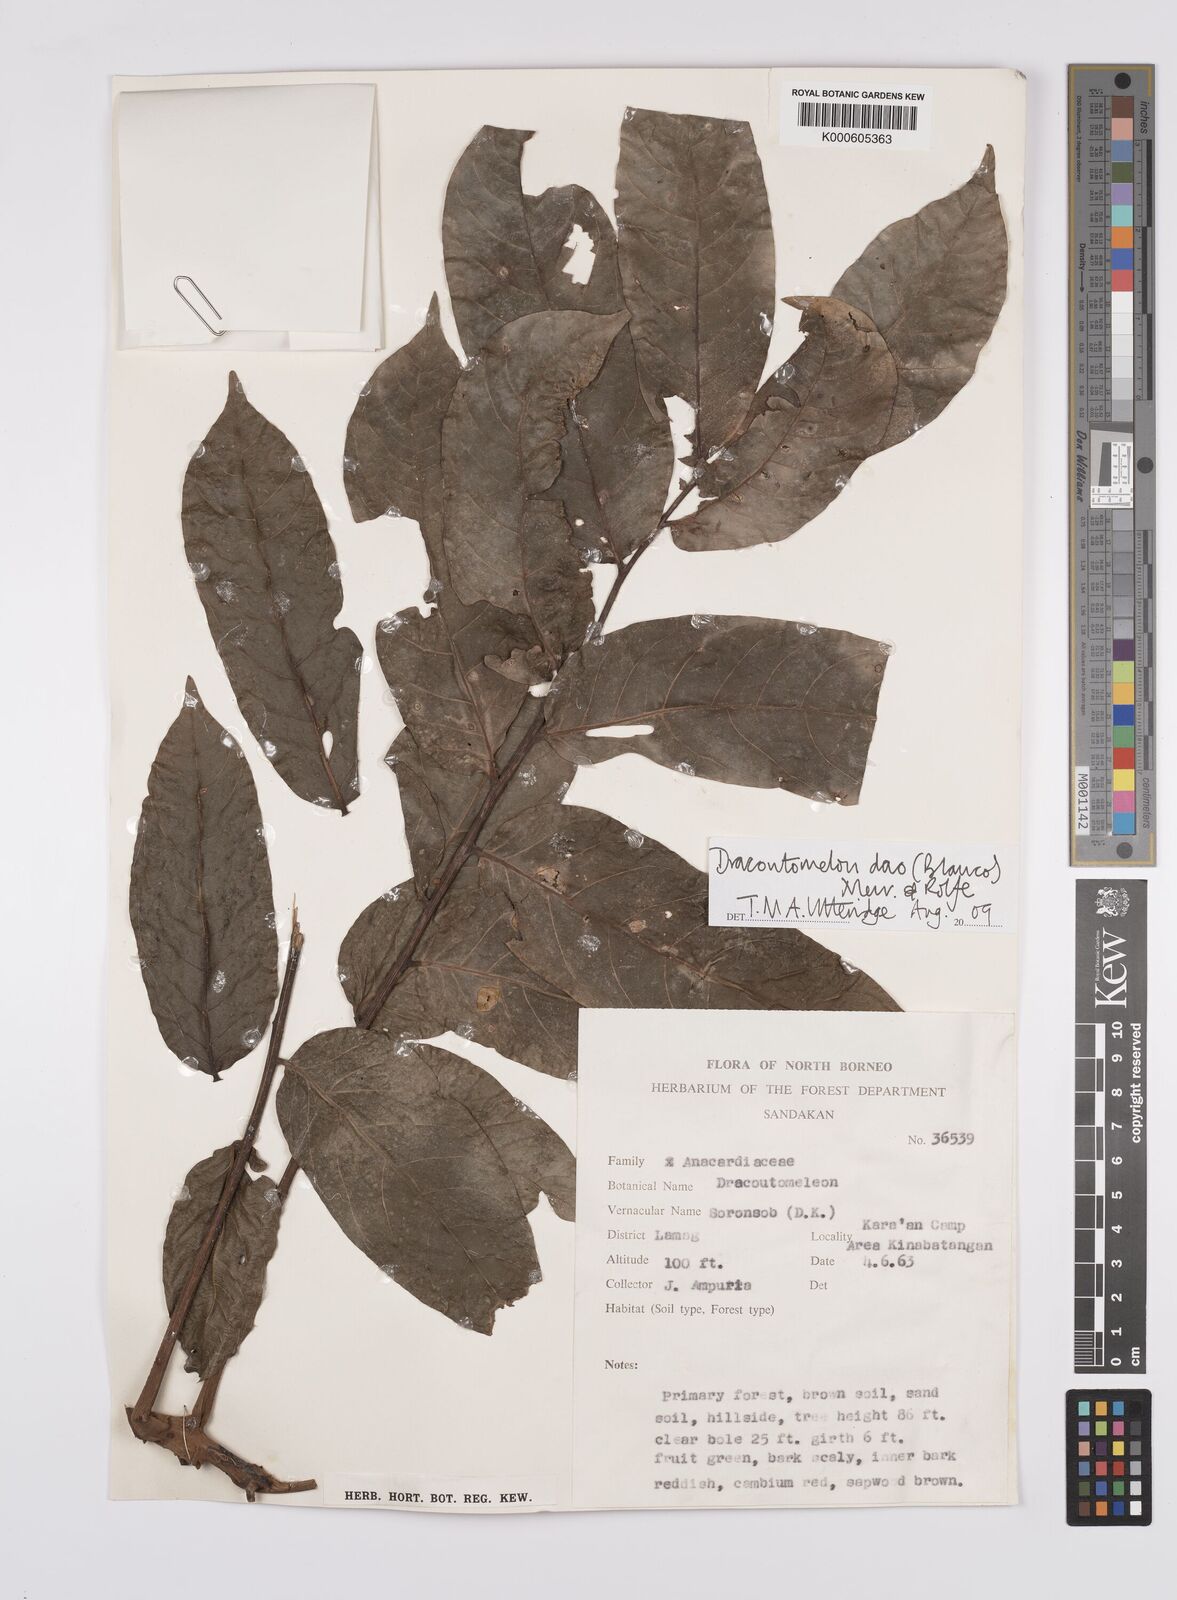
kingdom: Plantae
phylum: Tracheophyta
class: Magnoliopsida
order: Sapindales
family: Anacardiaceae
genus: Dracontomelon
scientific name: Dracontomelon dao
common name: Argus pheasant-tree
